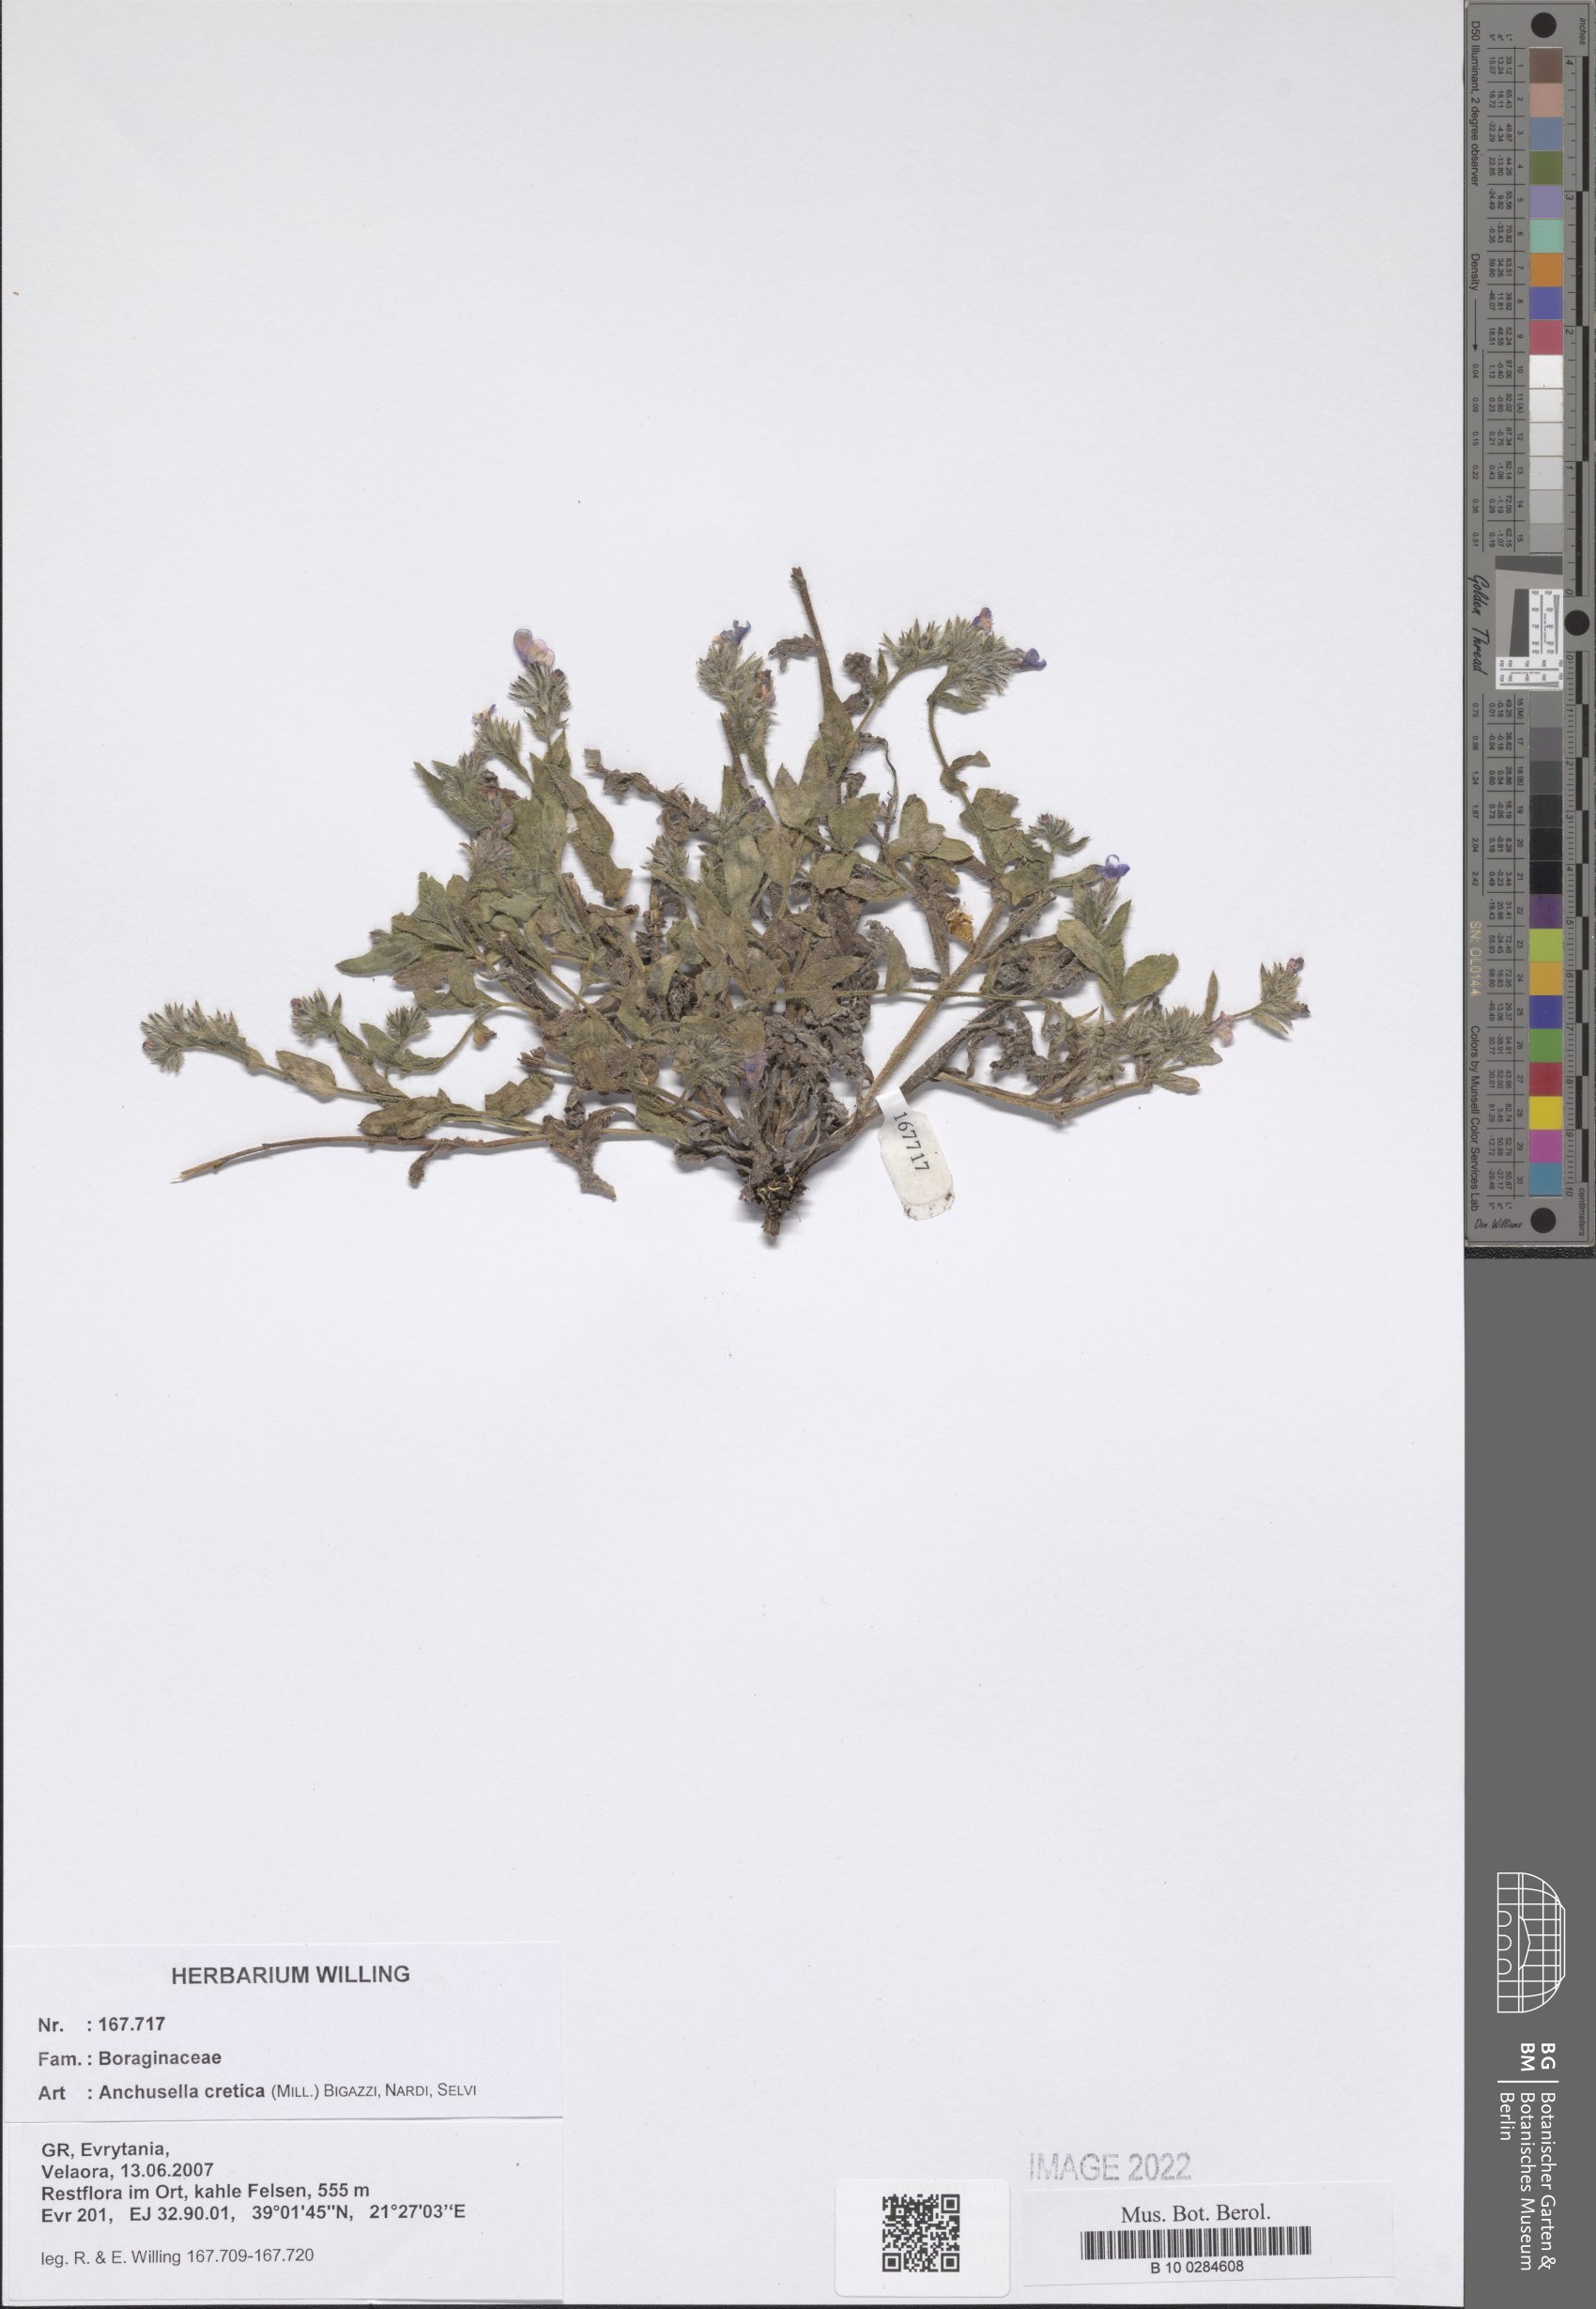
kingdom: Plantae
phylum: Tracheophyta
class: Magnoliopsida
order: Boraginales
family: Boraginaceae
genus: Lycopsis
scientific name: Lycopsis arvensis
